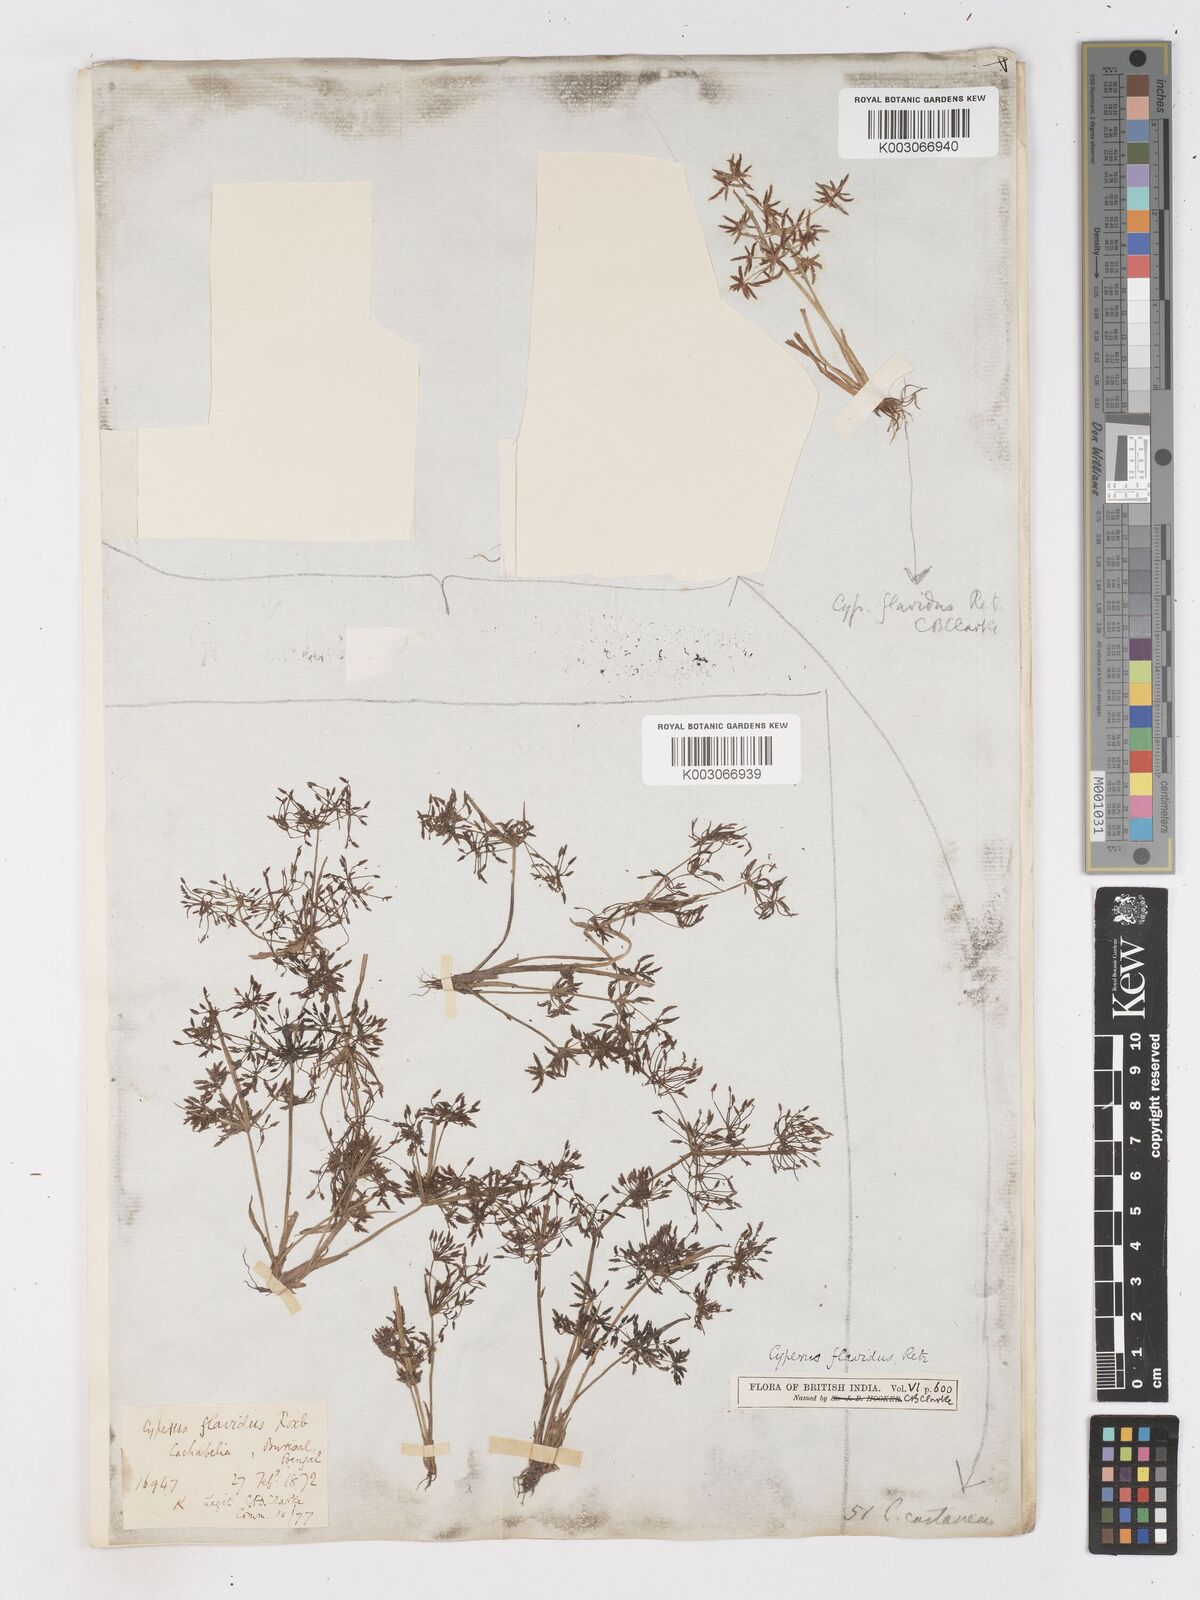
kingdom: Plantae
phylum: Tracheophyta
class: Liliopsida
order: Poales
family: Cyperaceae
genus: Cyperus
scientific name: Cyperus tenuispica
